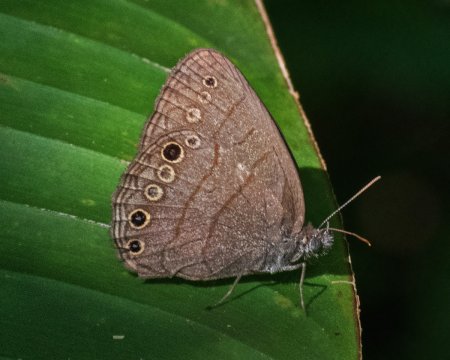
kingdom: Animalia
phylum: Arthropoda
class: Insecta
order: Lepidoptera
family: Nymphalidae
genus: Hermeuptychia
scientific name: Hermeuptychia canthe
